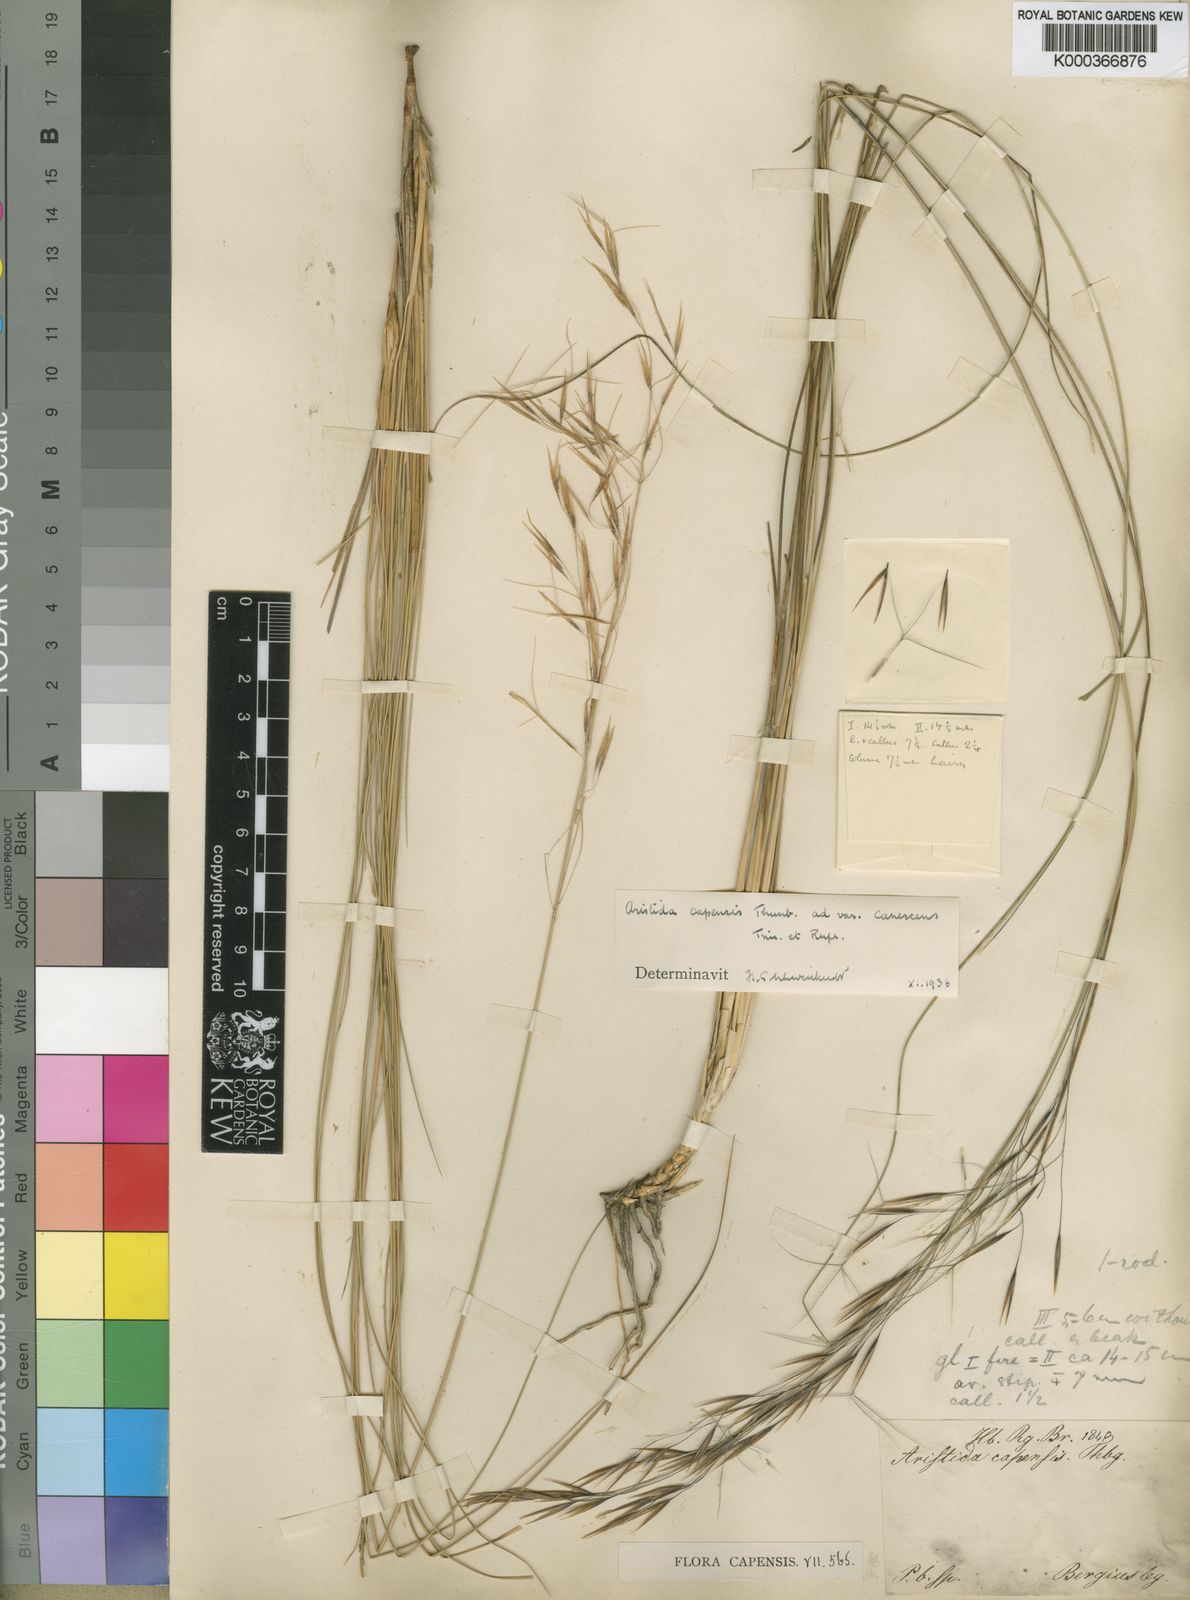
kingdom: Plantae
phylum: Tracheophyta
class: Liliopsida
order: Poales
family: Poaceae
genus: Stipagrostis
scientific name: Stipagrostis zeyheri
